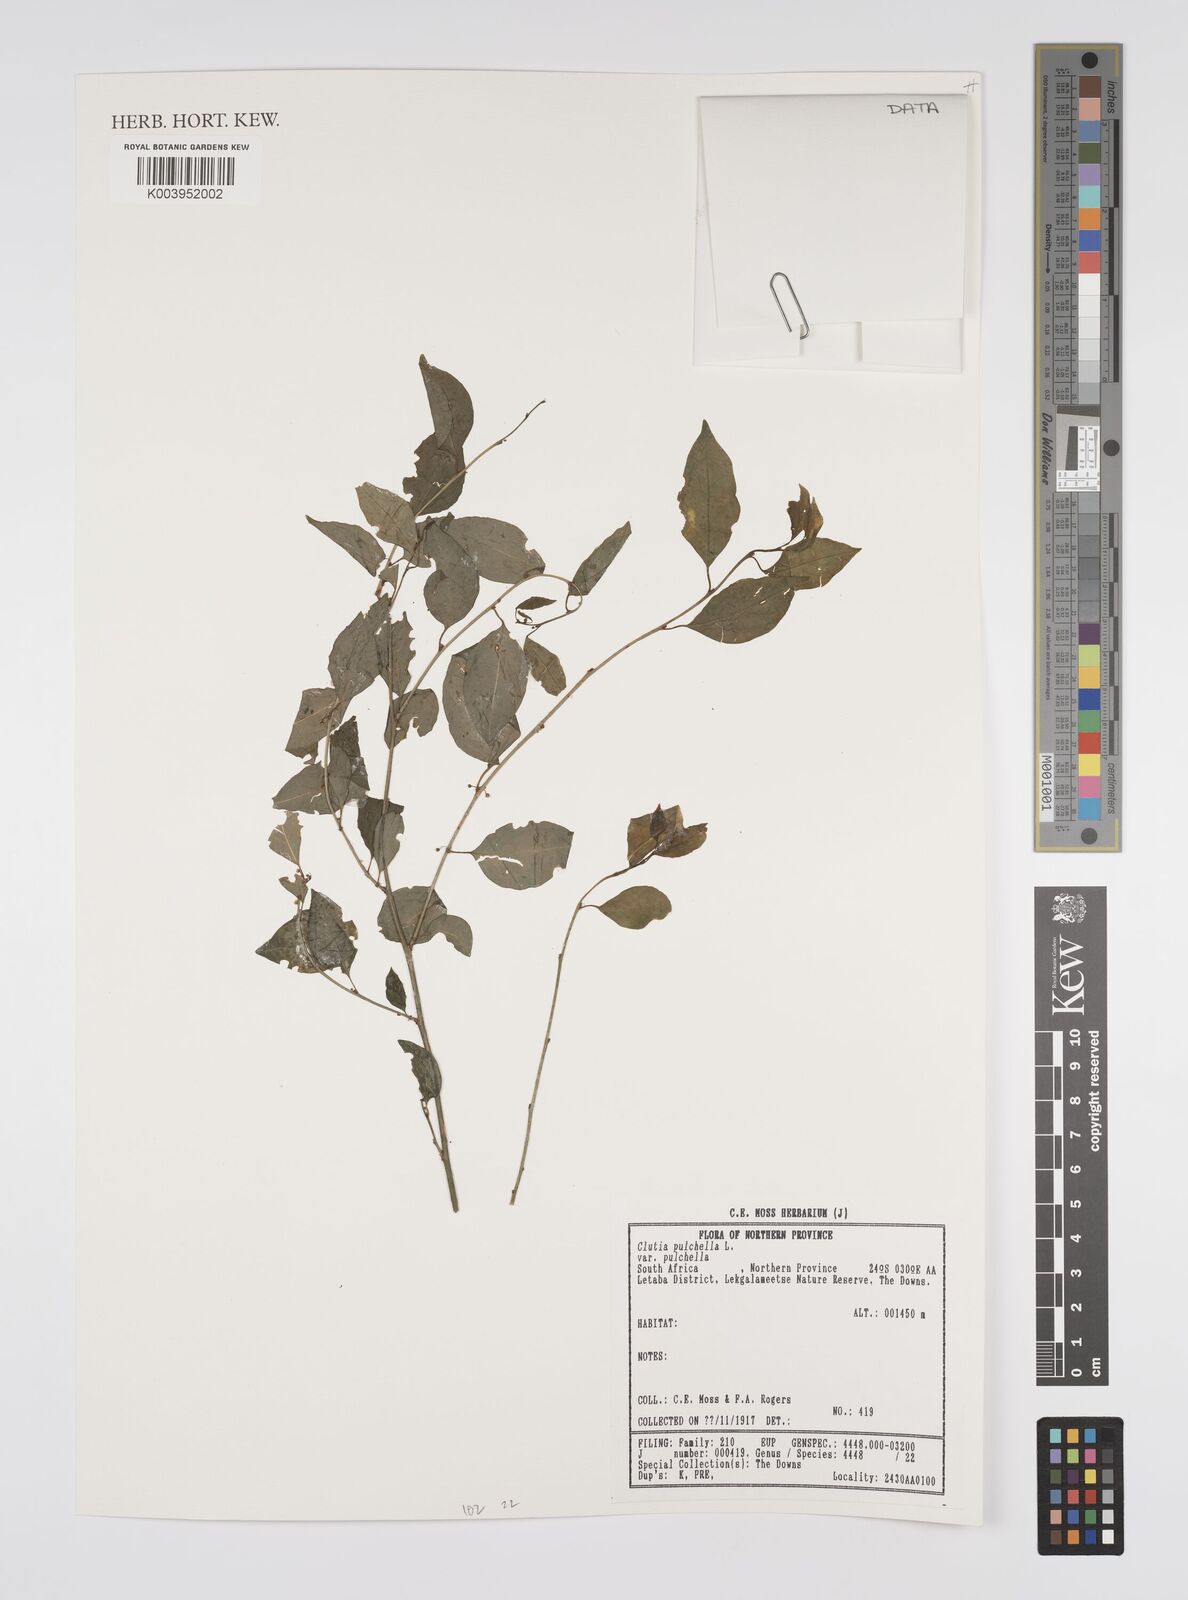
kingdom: Plantae
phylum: Tracheophyta
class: Magnoliopsida
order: Malpighiales
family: Peraceae
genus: Clutia
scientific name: Clutia pulchella
